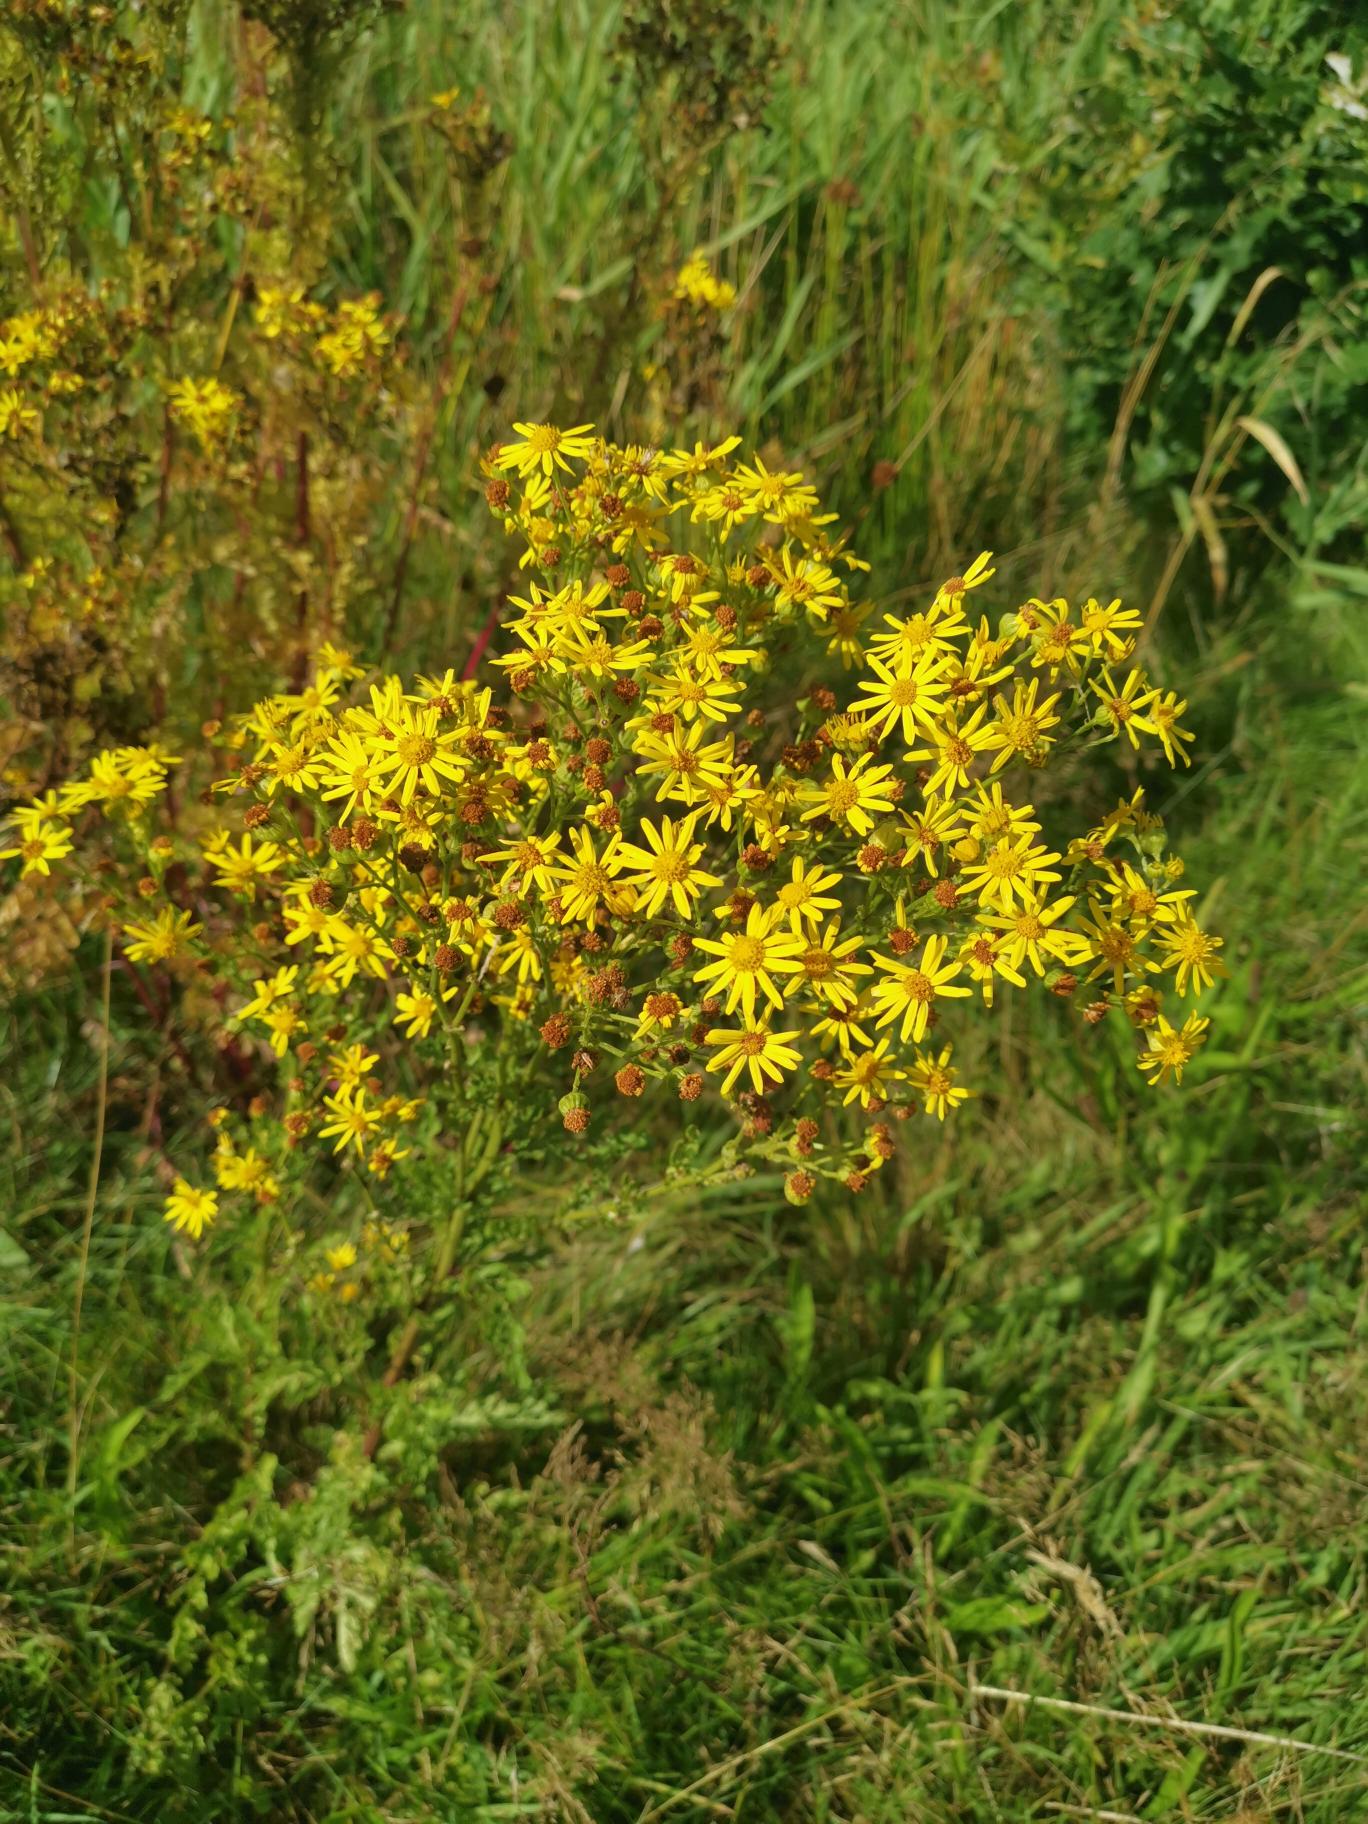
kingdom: Plantae
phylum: Tracheophyta
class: Magnoliopsida
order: Asterales
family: Asteraceae
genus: Jacobaea
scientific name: Jacobaea vulgaris
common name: Eng-brandbæger
